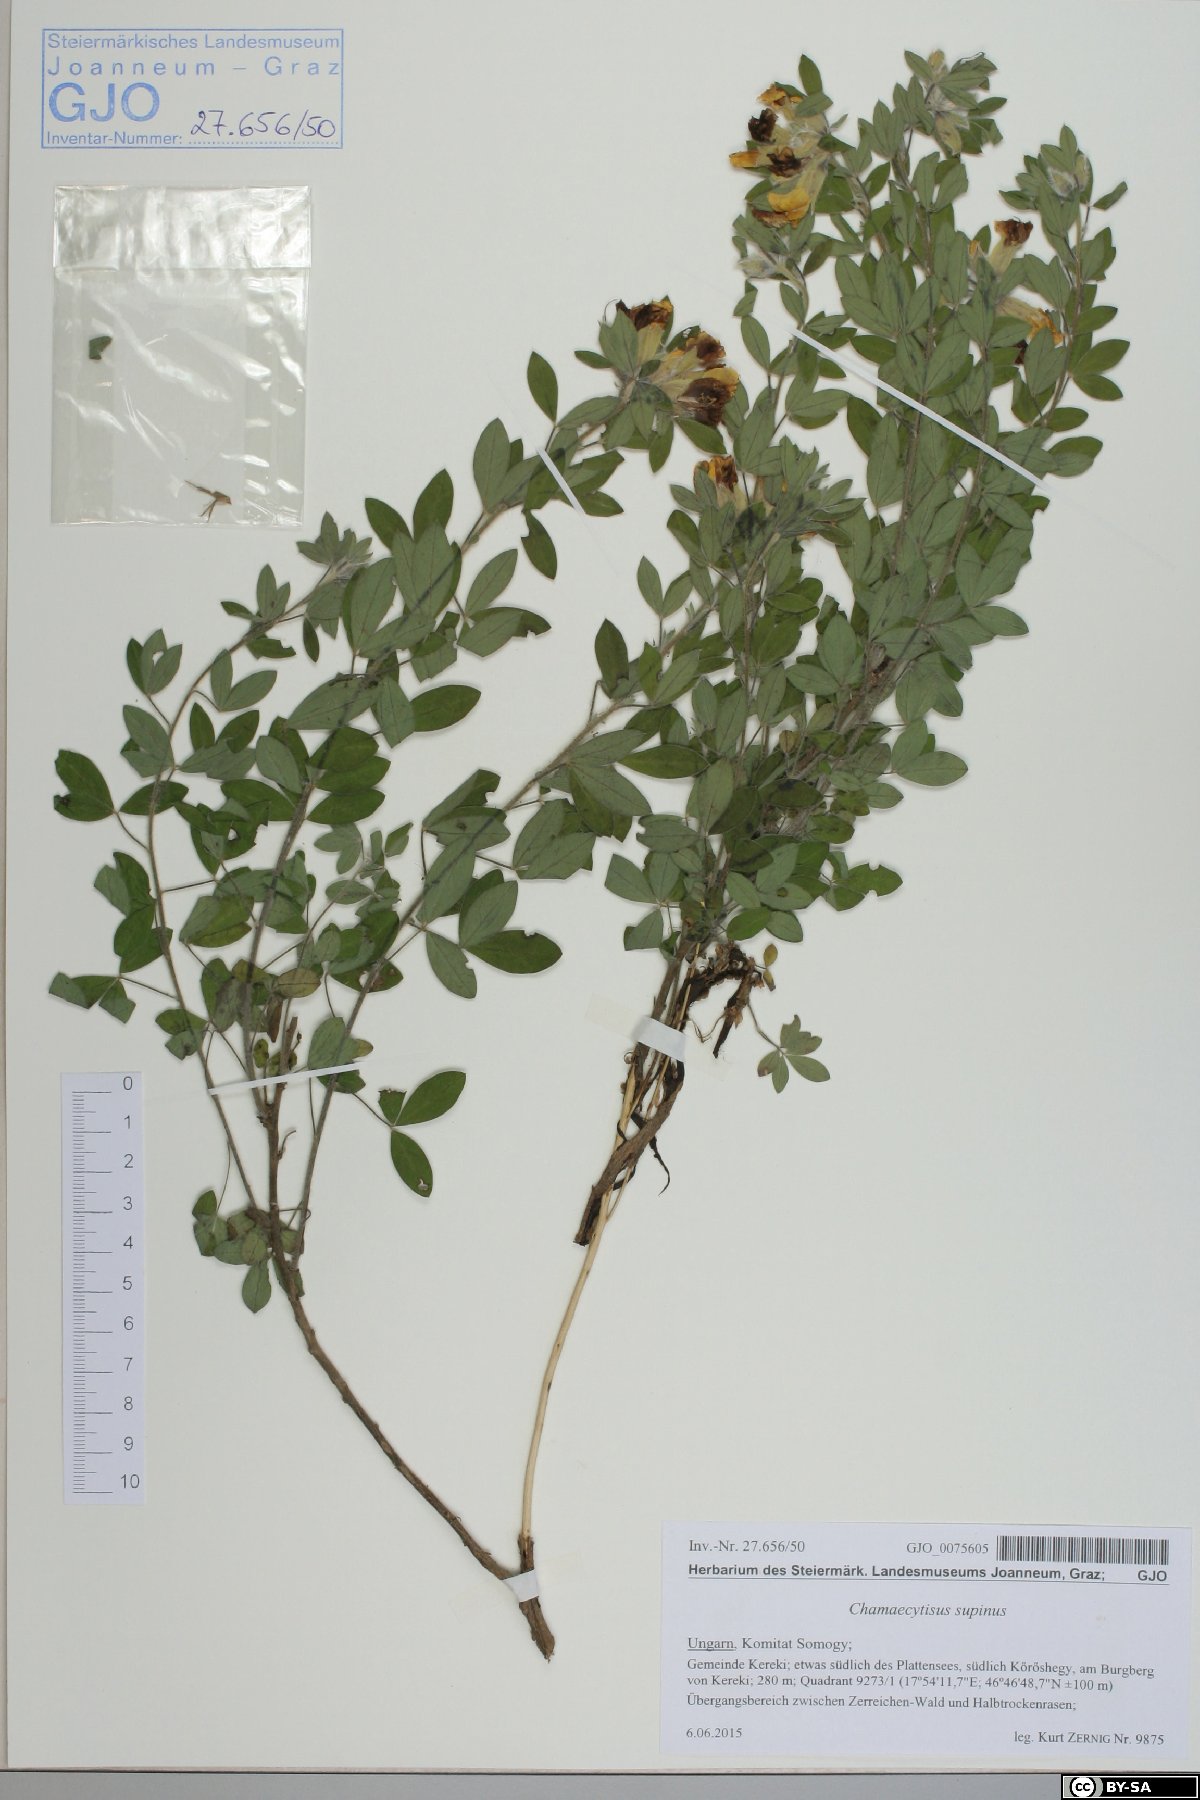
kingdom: Plantae
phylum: Tracheophyta
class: Magnoliopsida
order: Fabales
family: Fabaceae
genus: Chamaecytisus
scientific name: Chamaecytisus supinus
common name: Clustered broom
